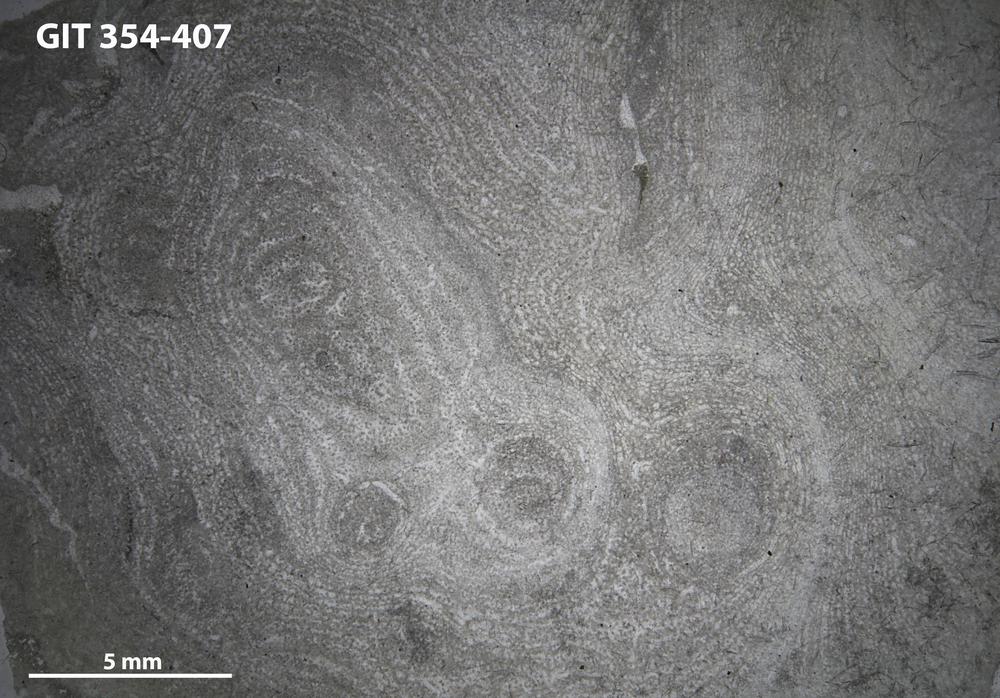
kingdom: Animalia
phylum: Porifera
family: Clathrodictyidae
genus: Clathrodictyon
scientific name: Clathrodictyon clivosum
